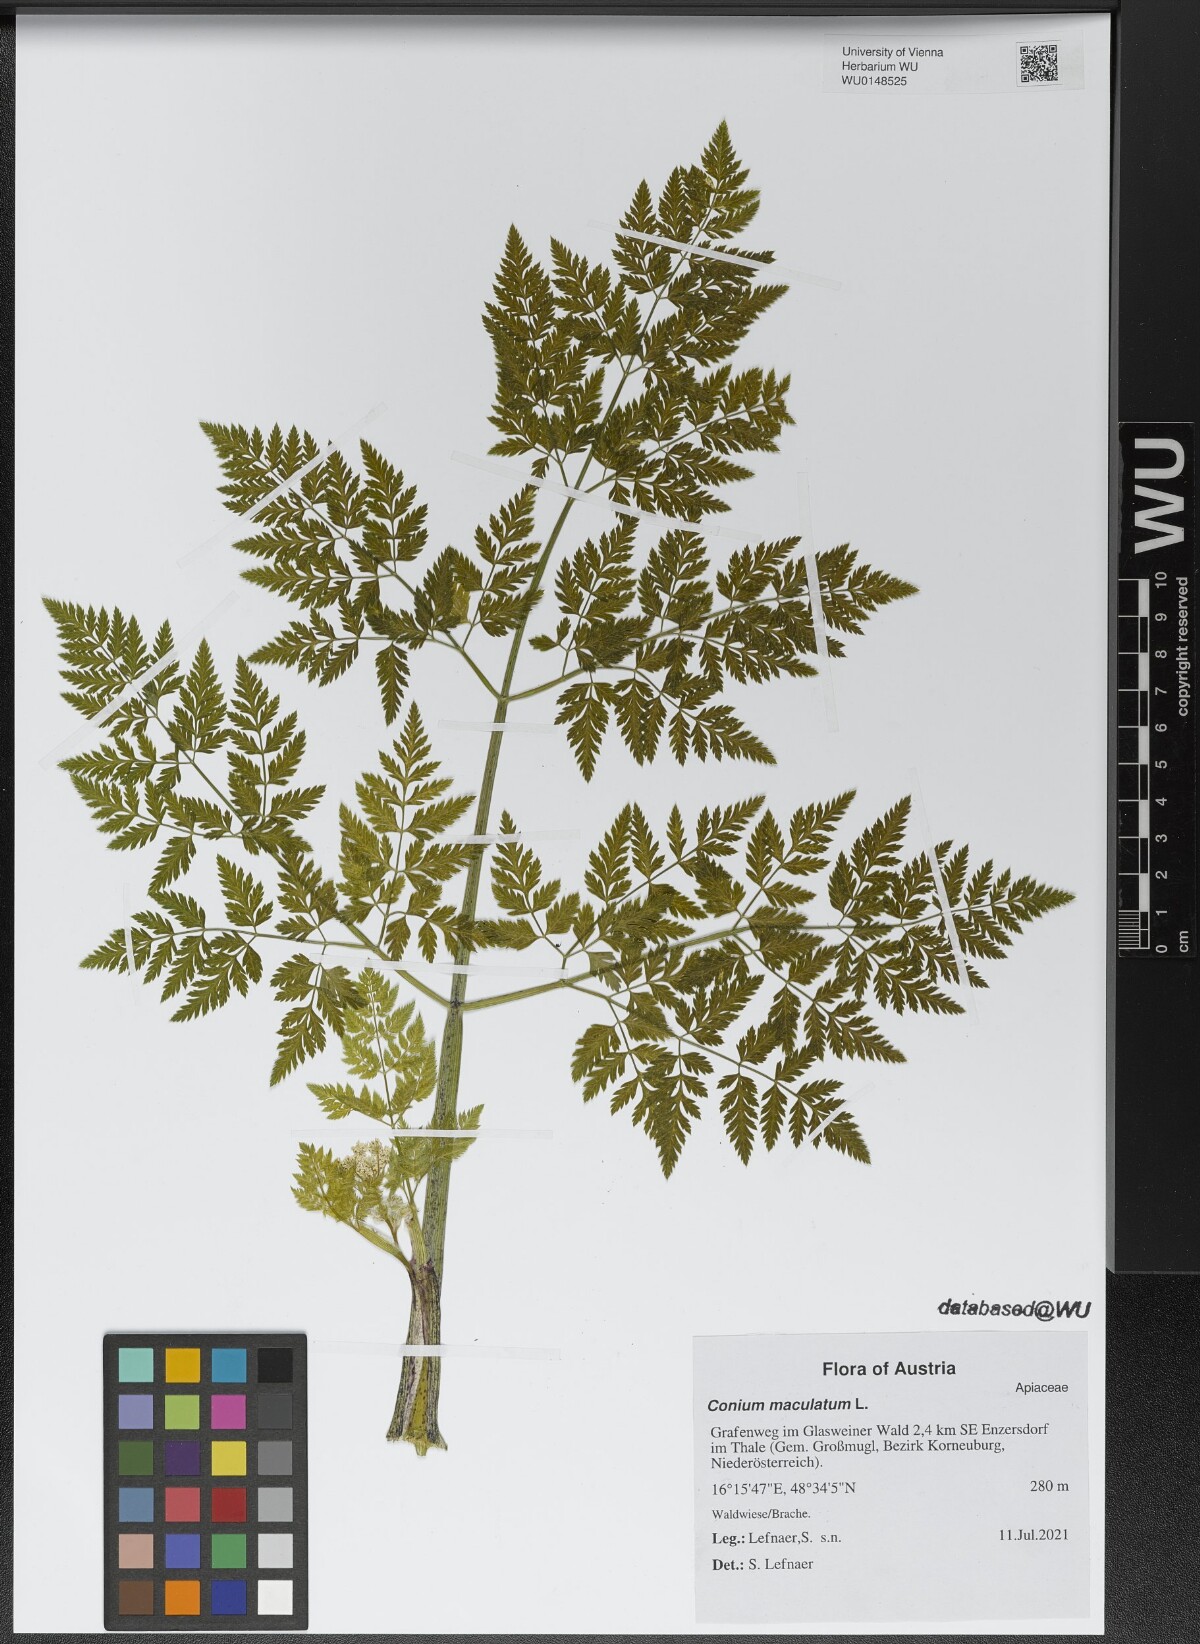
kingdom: Plantae
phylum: Tracheophyta
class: Magnoliopsida
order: Apiales
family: Apiaceae
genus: Conium
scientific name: Conium maculatum
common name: Hemlock
